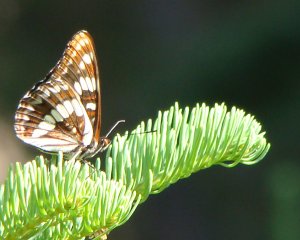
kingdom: Animalia
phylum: Arthropoda
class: Insecta
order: Lepidoptera
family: Nymphalidae
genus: Limenitis
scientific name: Limenitis lorquini
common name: Lorquin's Admiral
